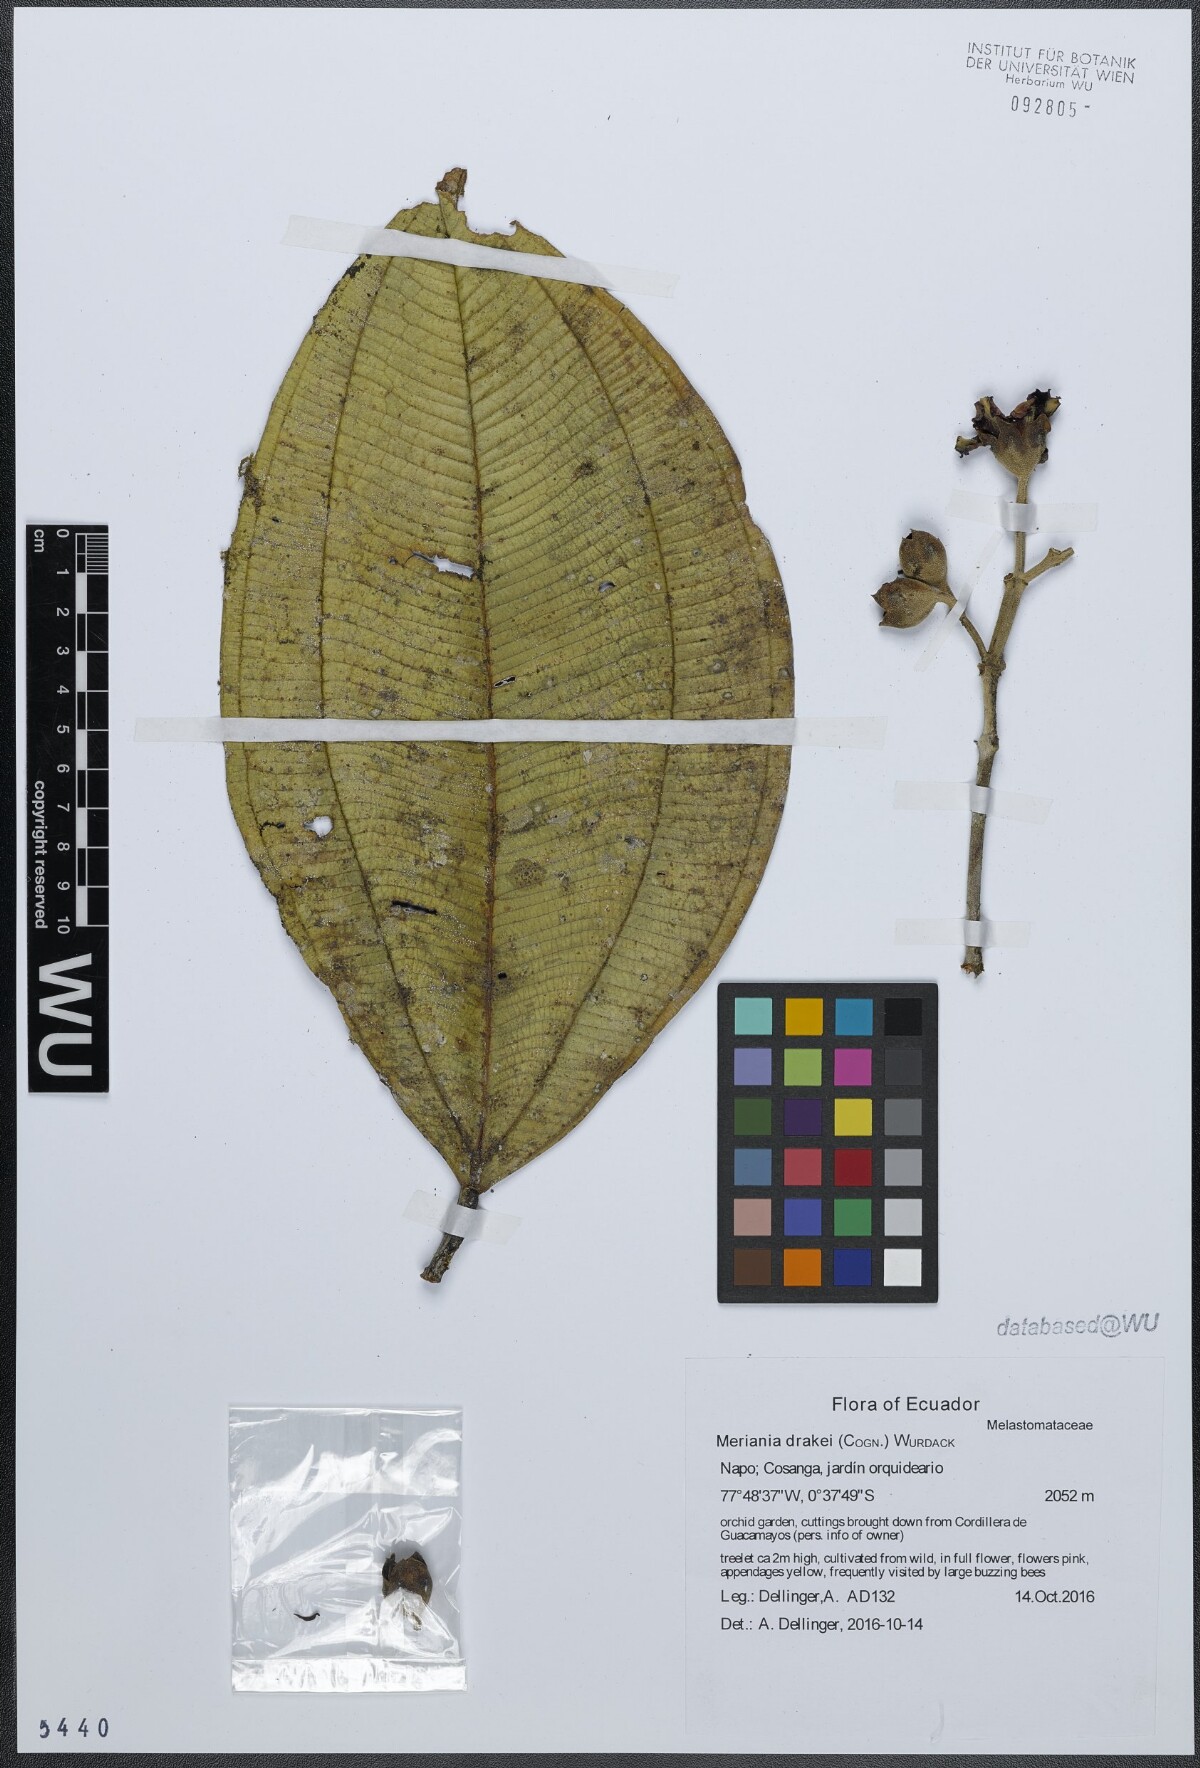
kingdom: Plantae
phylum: Tracheophyta
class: Magnoliopsida
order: Myrtales
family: Melastomataceae
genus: Meriania
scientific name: Meriania drakei
